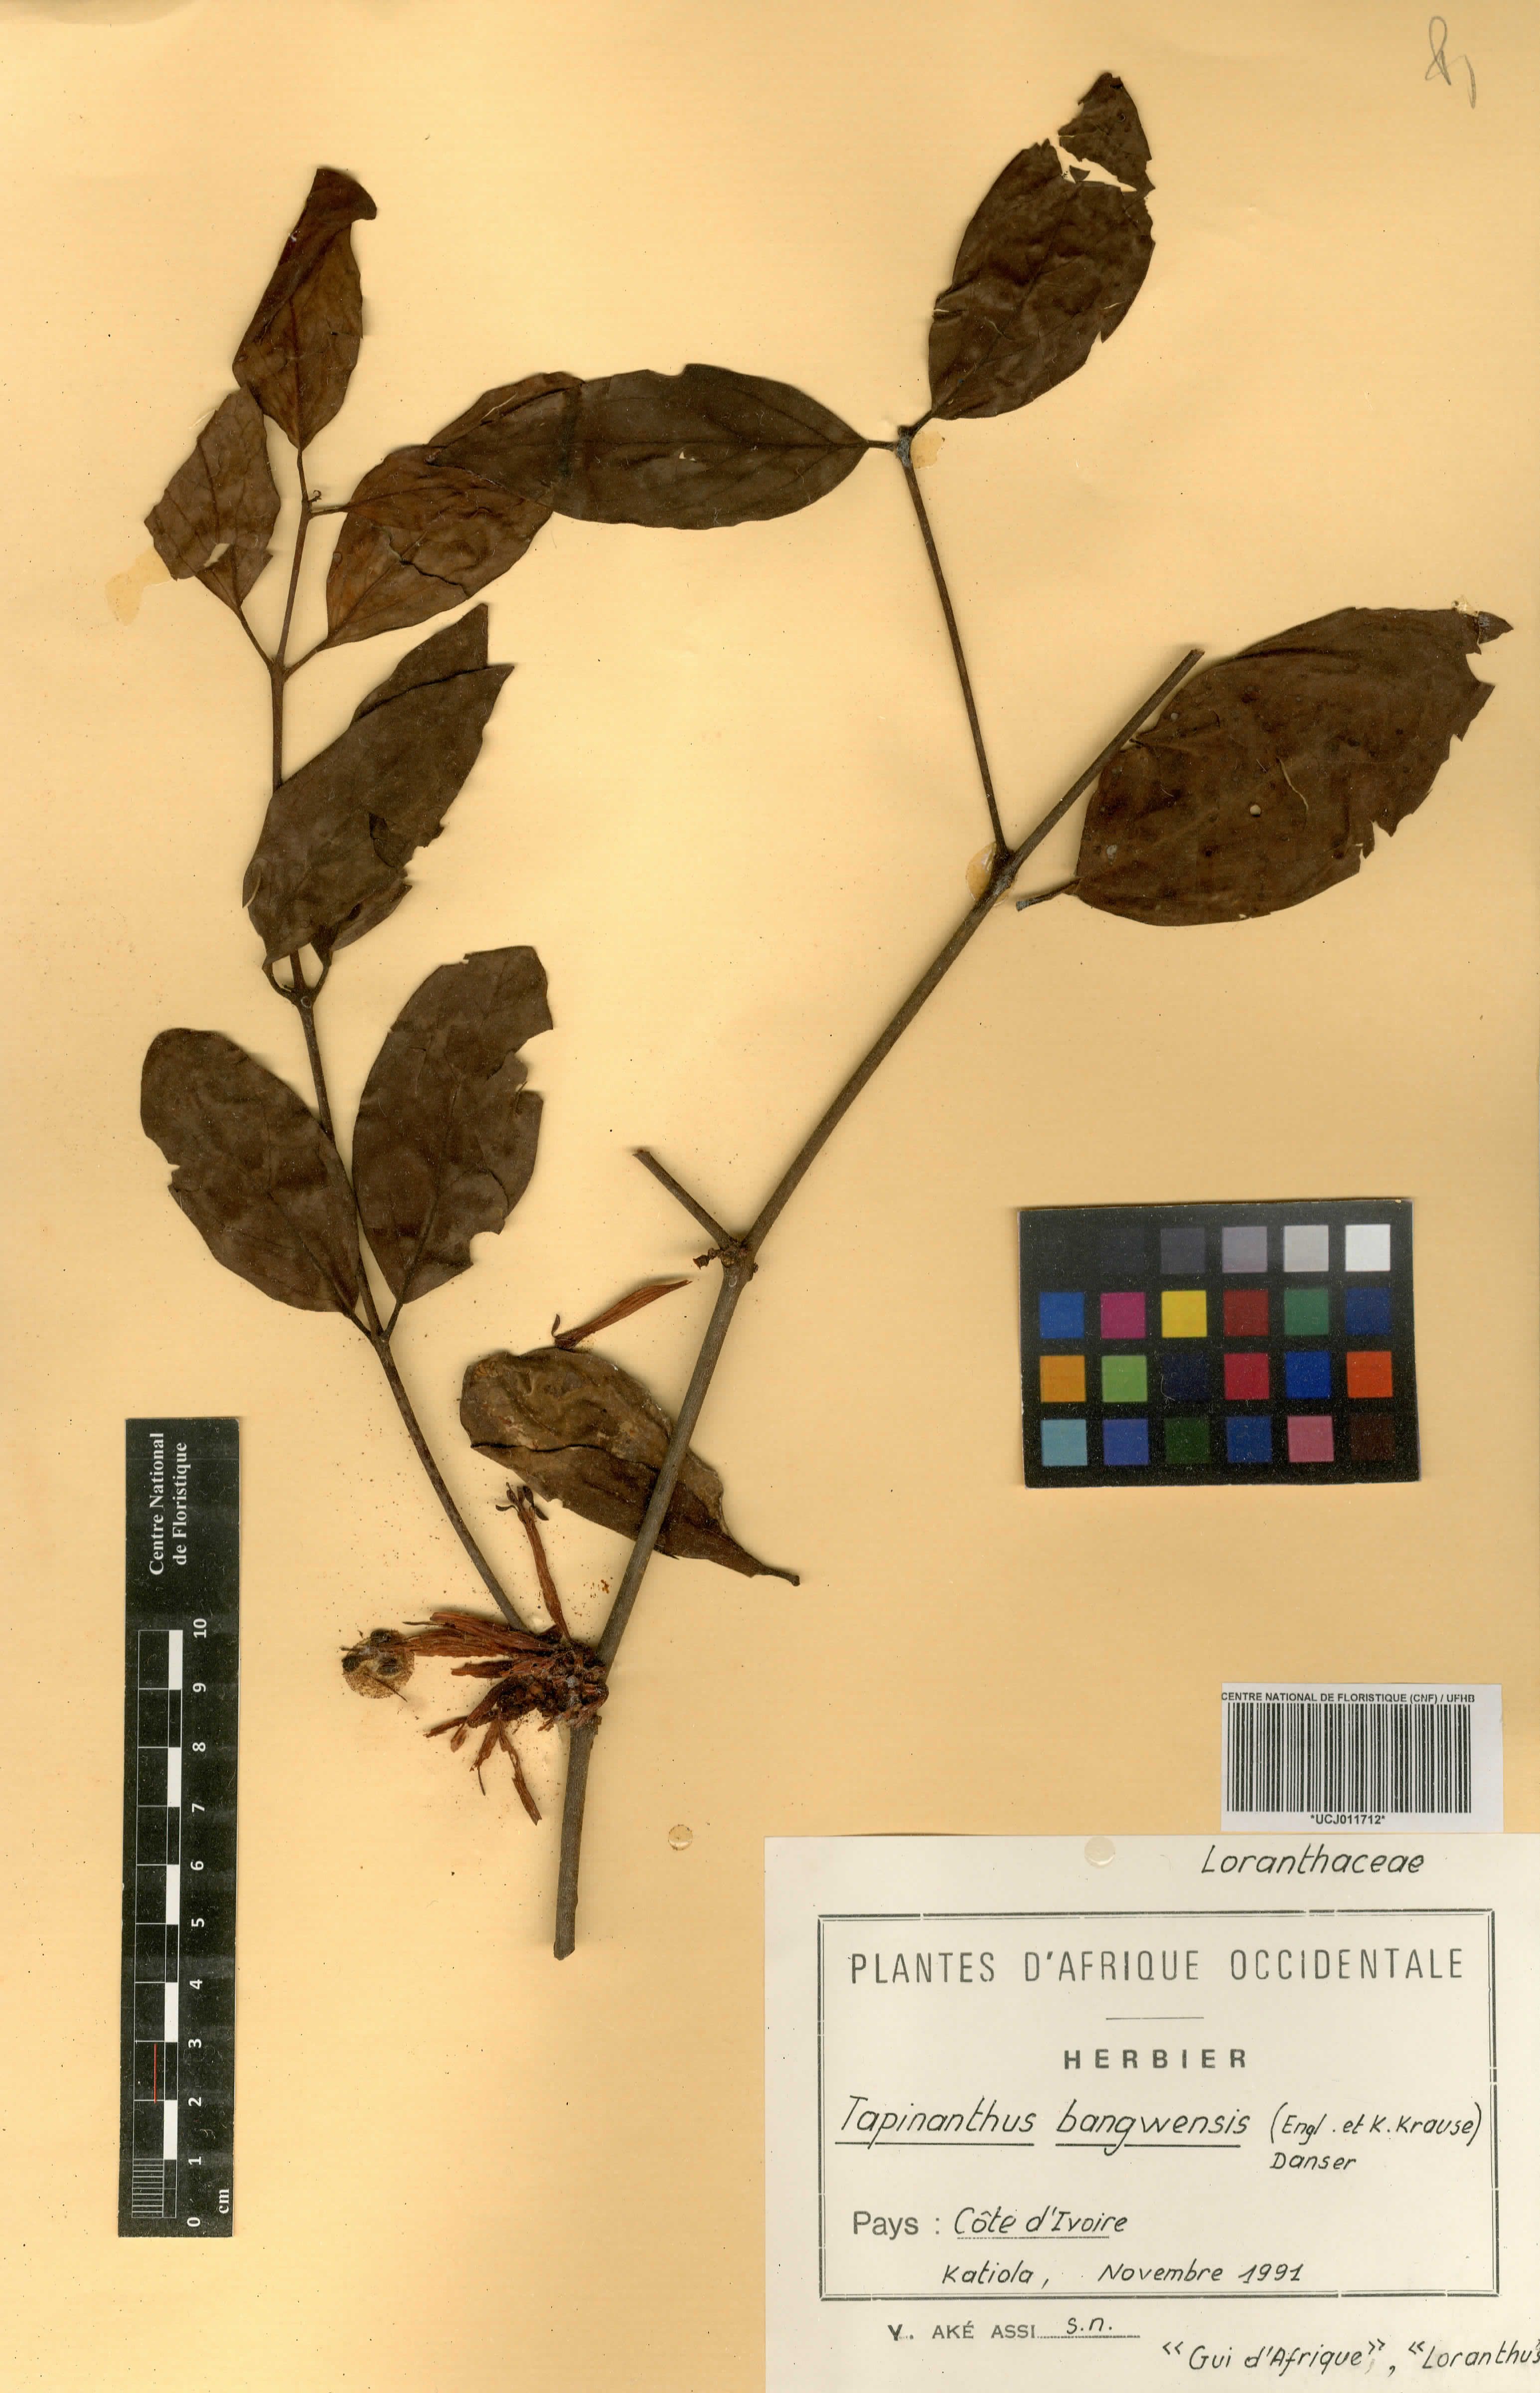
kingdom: Plantae
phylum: Tracheophyta
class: Magnoliopsida
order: Santalales
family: Loranthaceae
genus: Tapinanthus
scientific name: Tapinanthus bangwensis
